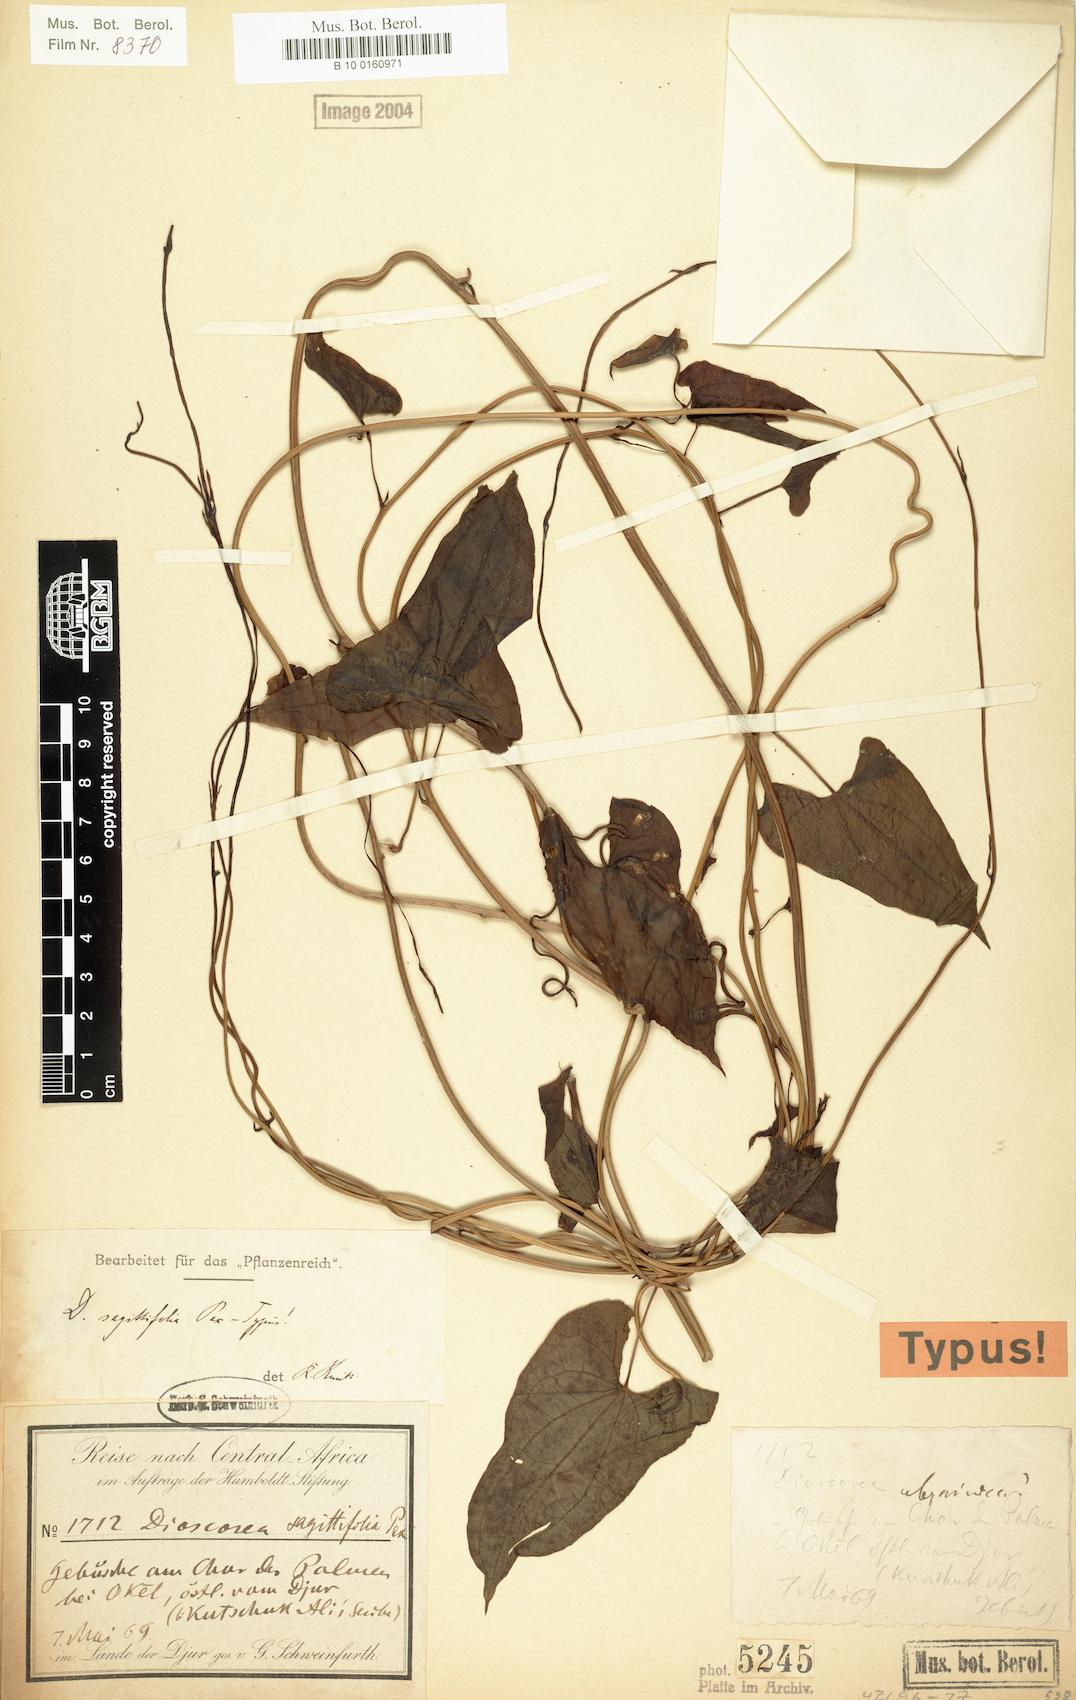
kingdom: Plantae
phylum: Tracheophyta
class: Liliopsida
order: Dioscoreales
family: Dioscoreaceae
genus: Dioscorea
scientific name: Dioscorea sagittifolia
